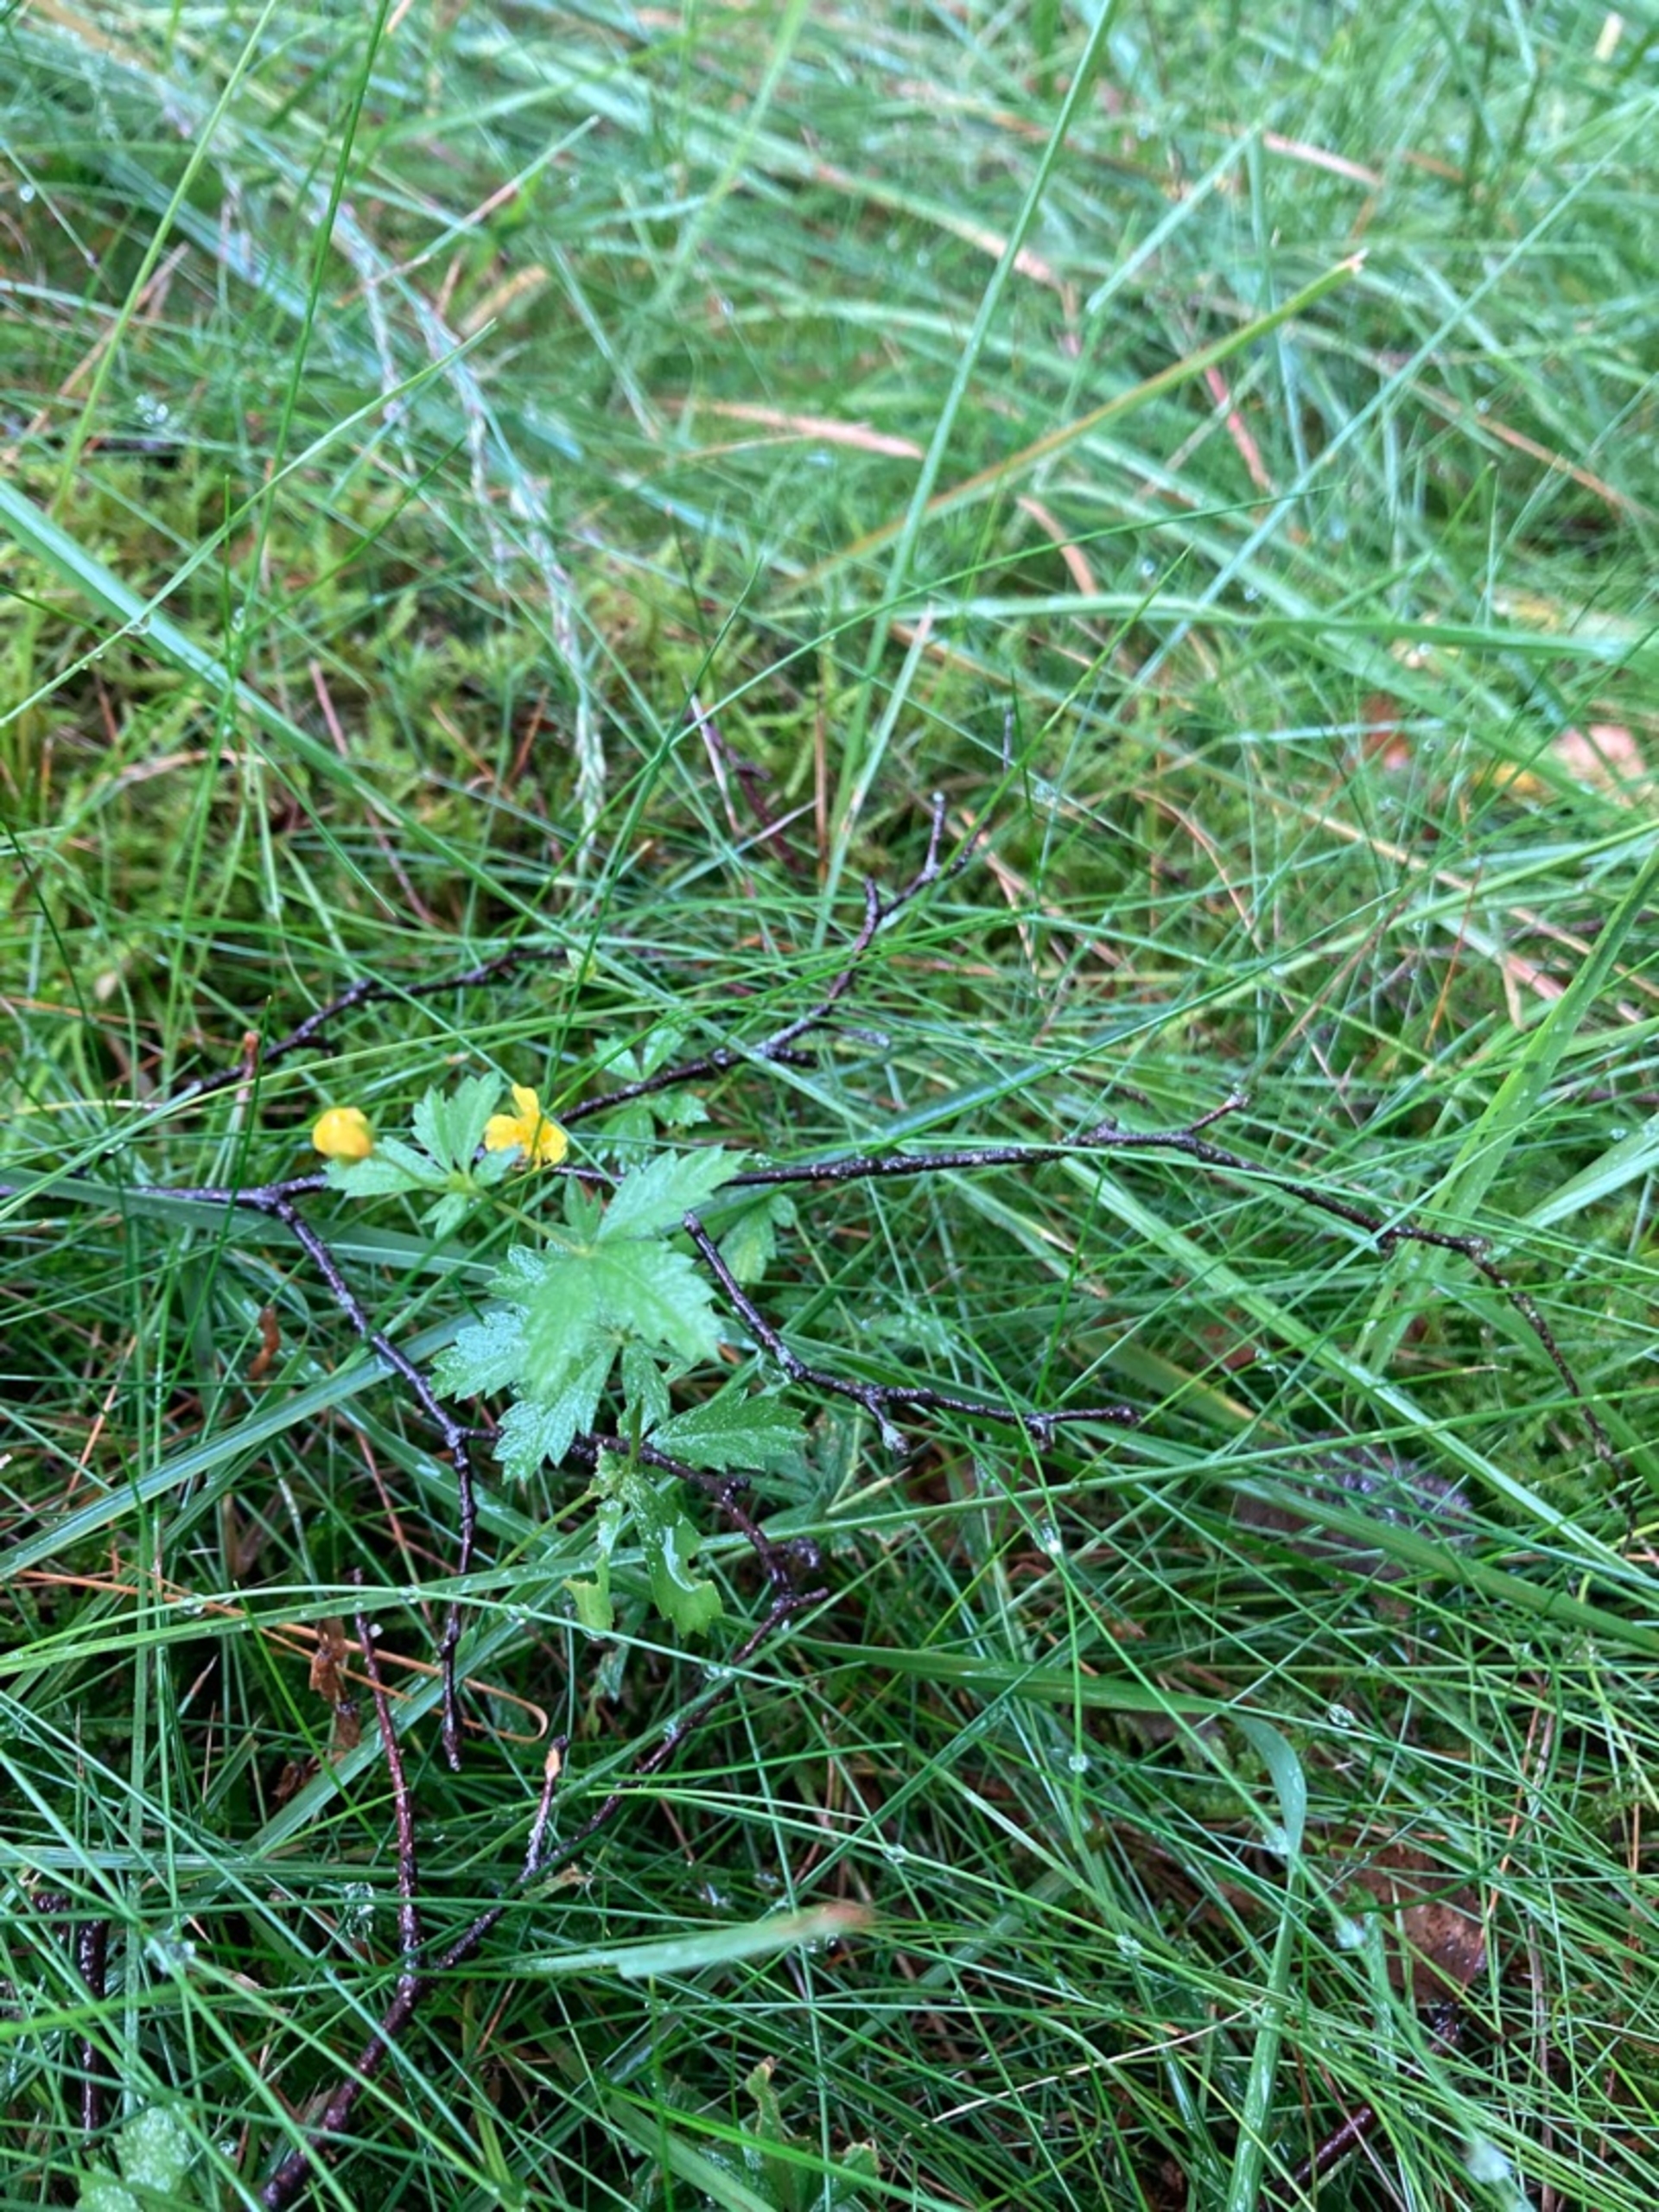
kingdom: Plantae
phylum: Tracheophyta
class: Magnoliopsida
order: Rosales
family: Rosaceae
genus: Potentilla
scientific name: Potentilla erecta
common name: Tormentil
